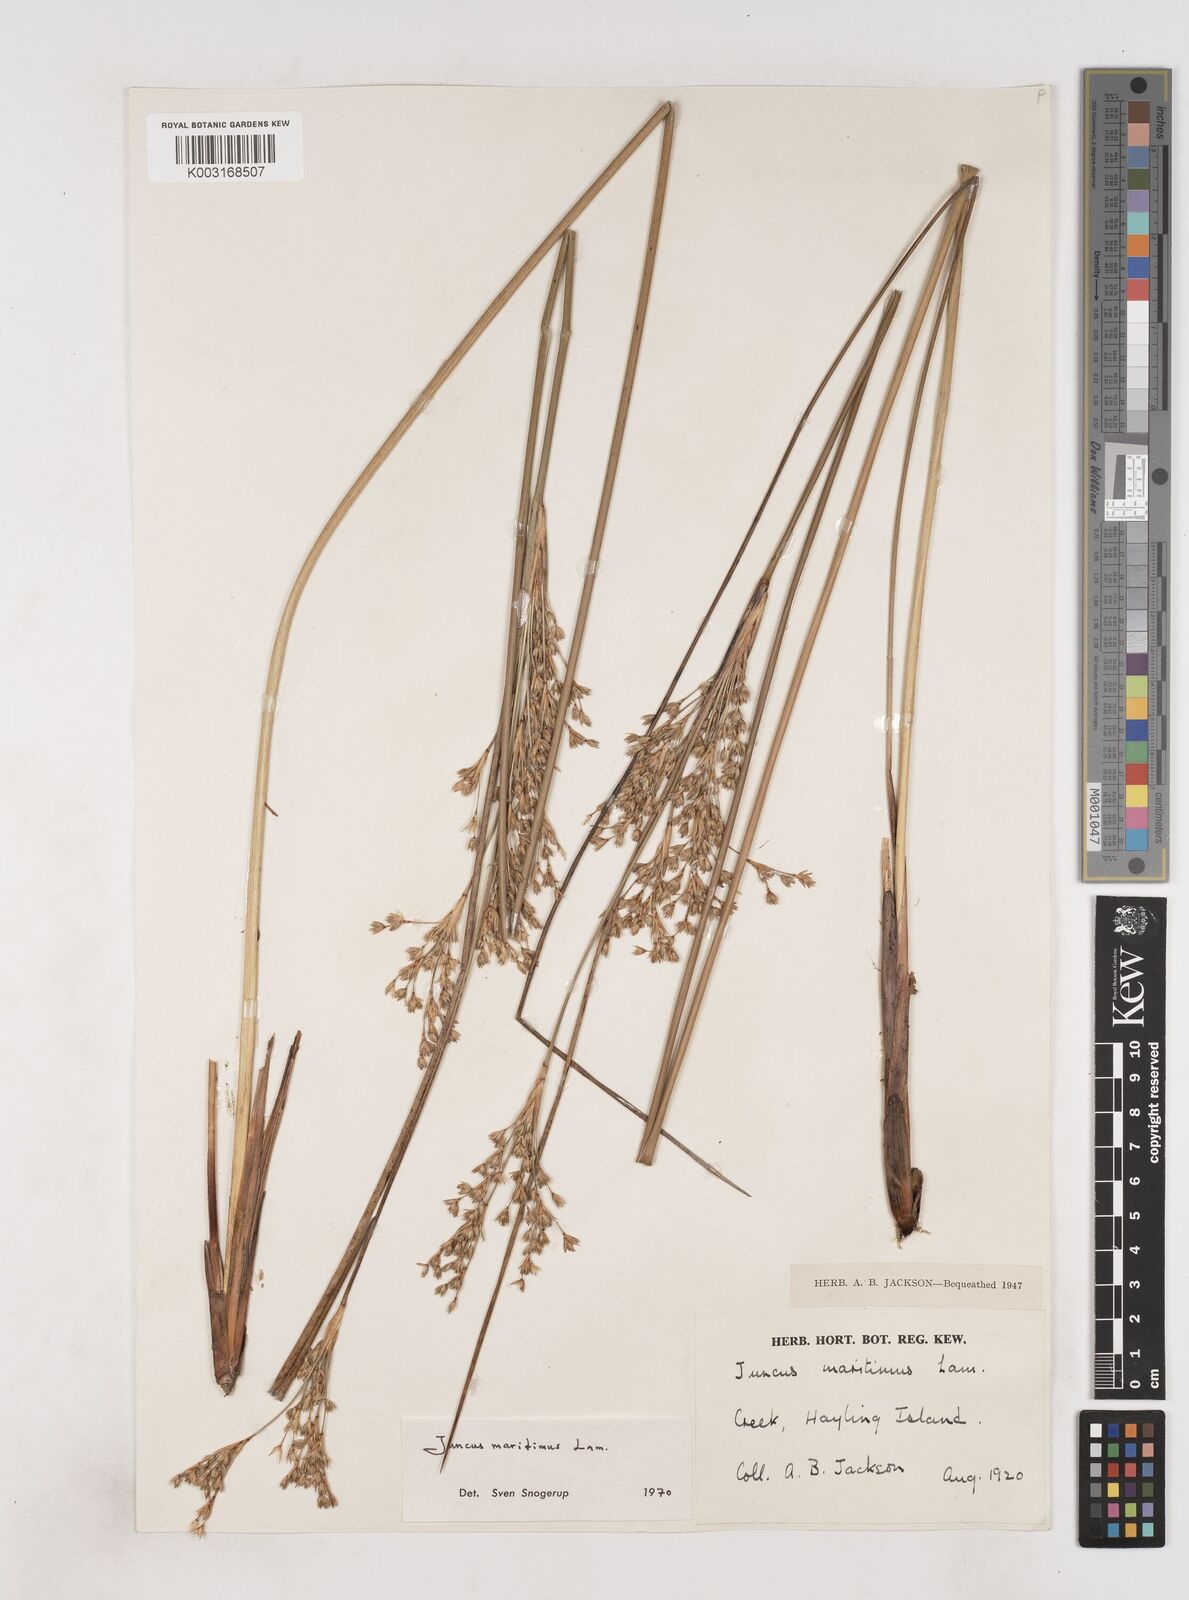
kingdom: Plantae
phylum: Tracheophyta
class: Liliopsida
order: Poales
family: Juncaceae
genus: Juncus
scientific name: Juncus maritimus
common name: Sea rush
